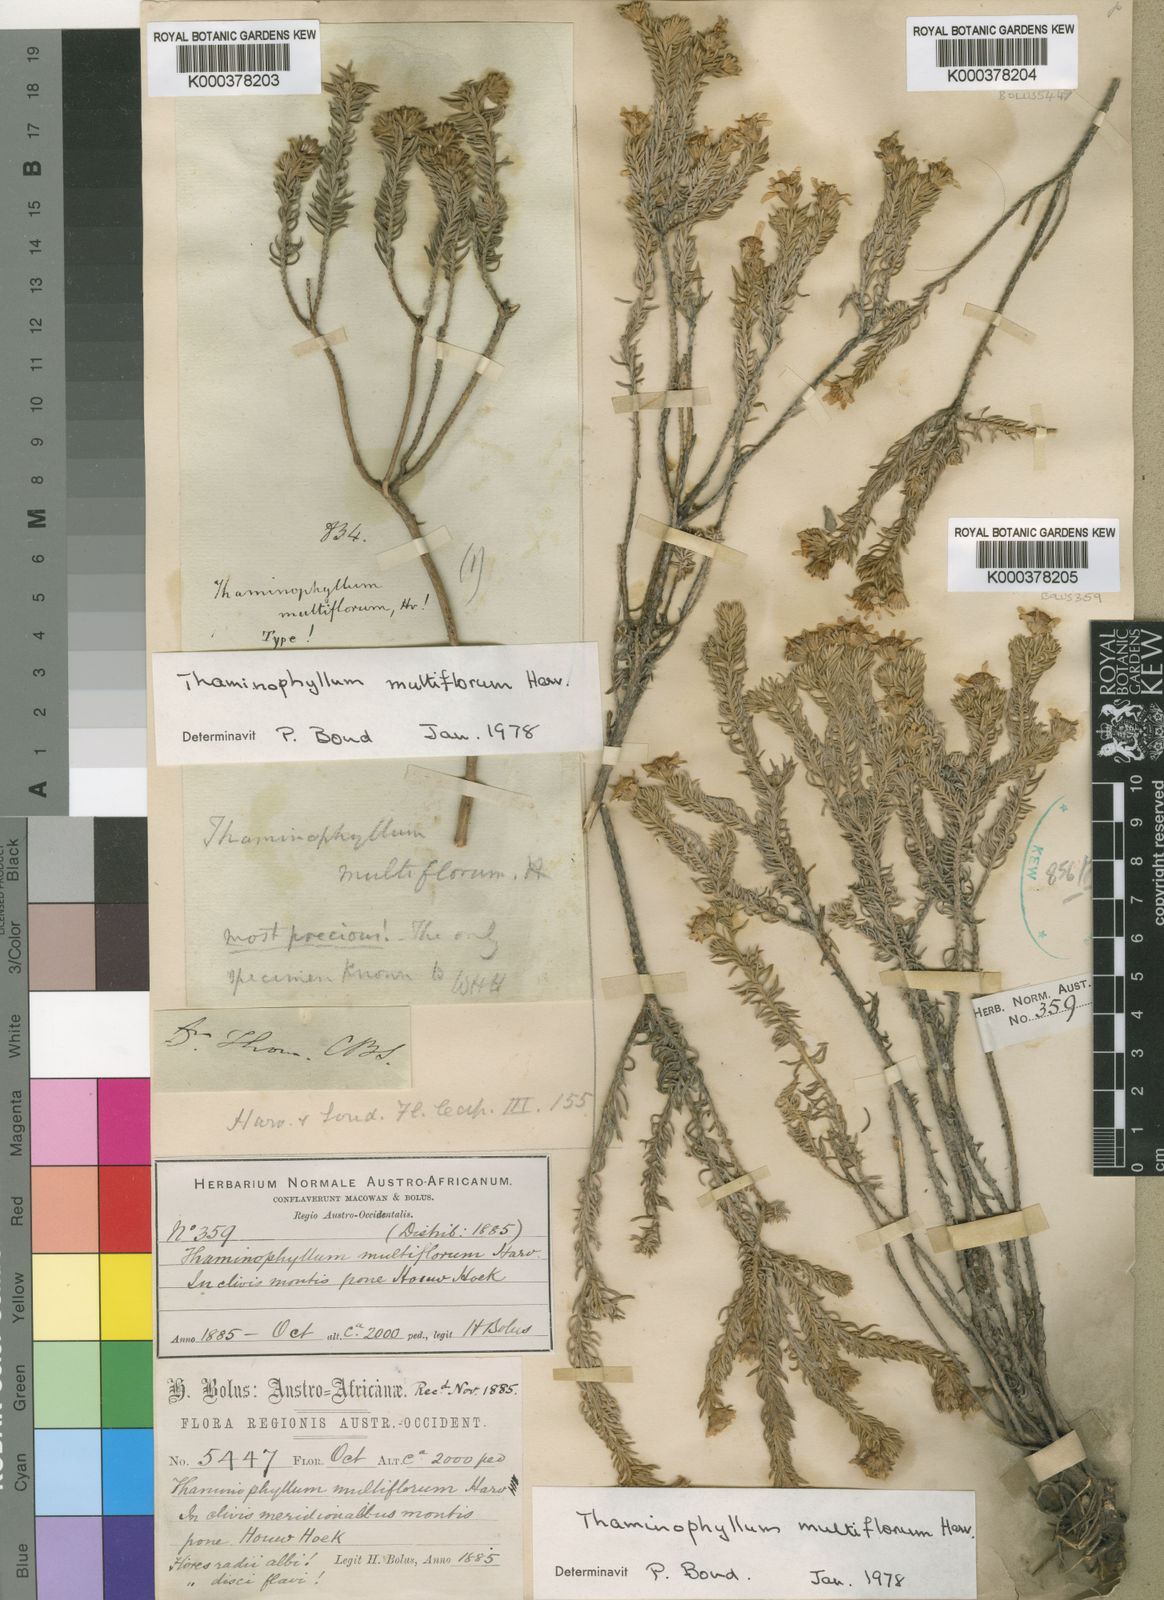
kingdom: Plantae
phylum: Tracheophyta
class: Magnoliopsida
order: Asterales
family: Asteraceae
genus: Thaminophyllum
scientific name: Thaminophyllum multiflorum
